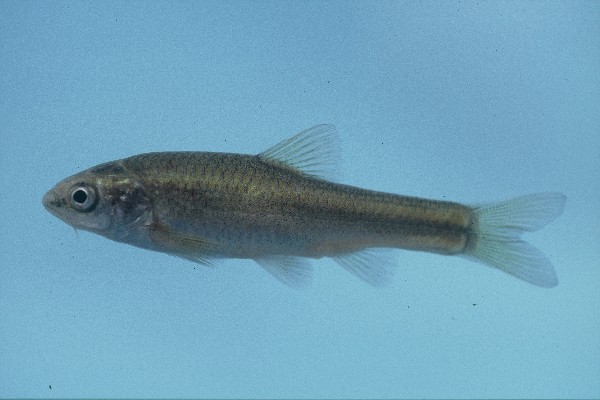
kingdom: Animalia
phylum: Chordata
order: Cypriniformes
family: Cyprinidae
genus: Enteromius
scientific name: Enteromius amatolicus
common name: Amatola barb
